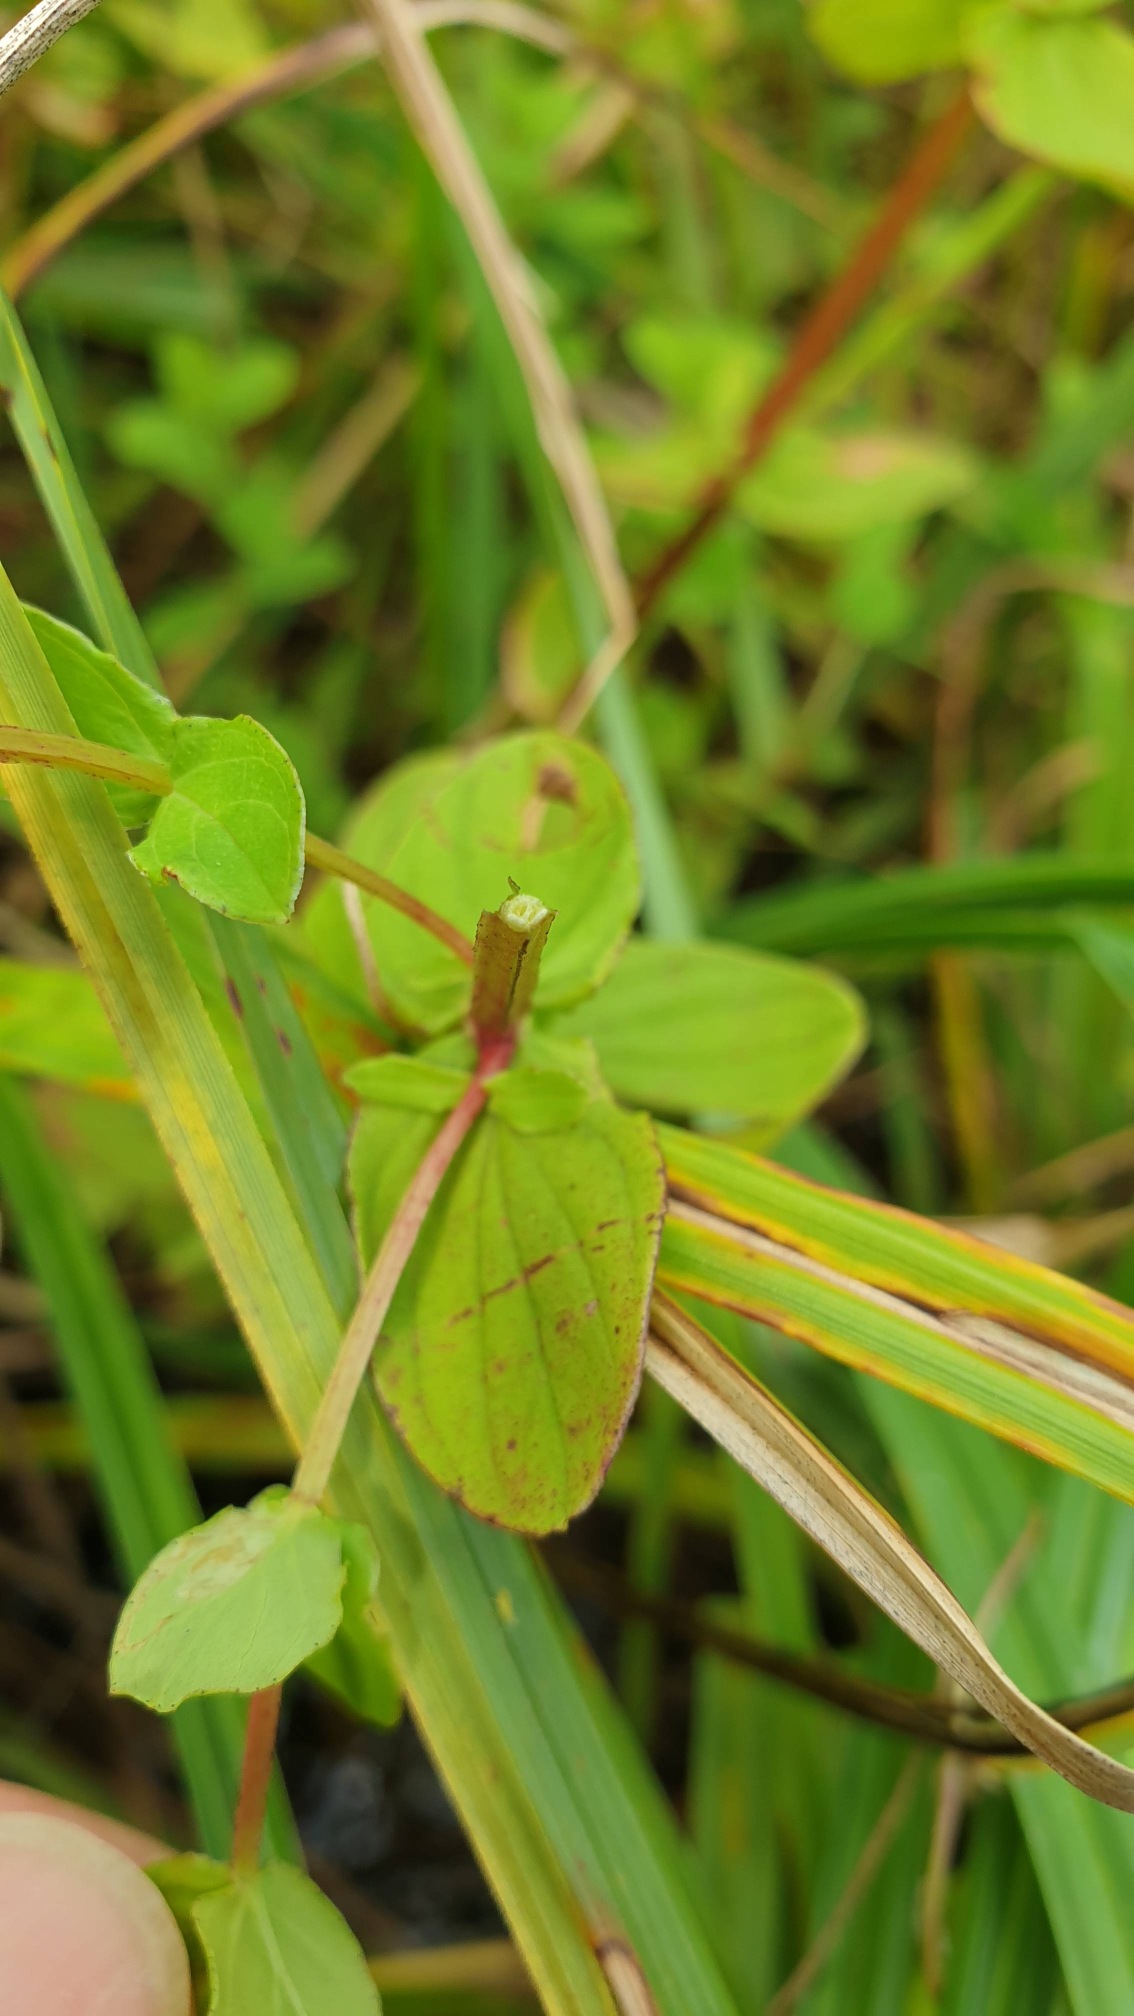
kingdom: Plantae
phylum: Tracheophyta
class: Magnoliopsida
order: Malpighiales
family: Hypericaceae
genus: Hypericum
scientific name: Hypericum tetrapterum
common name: Vinget perikon
